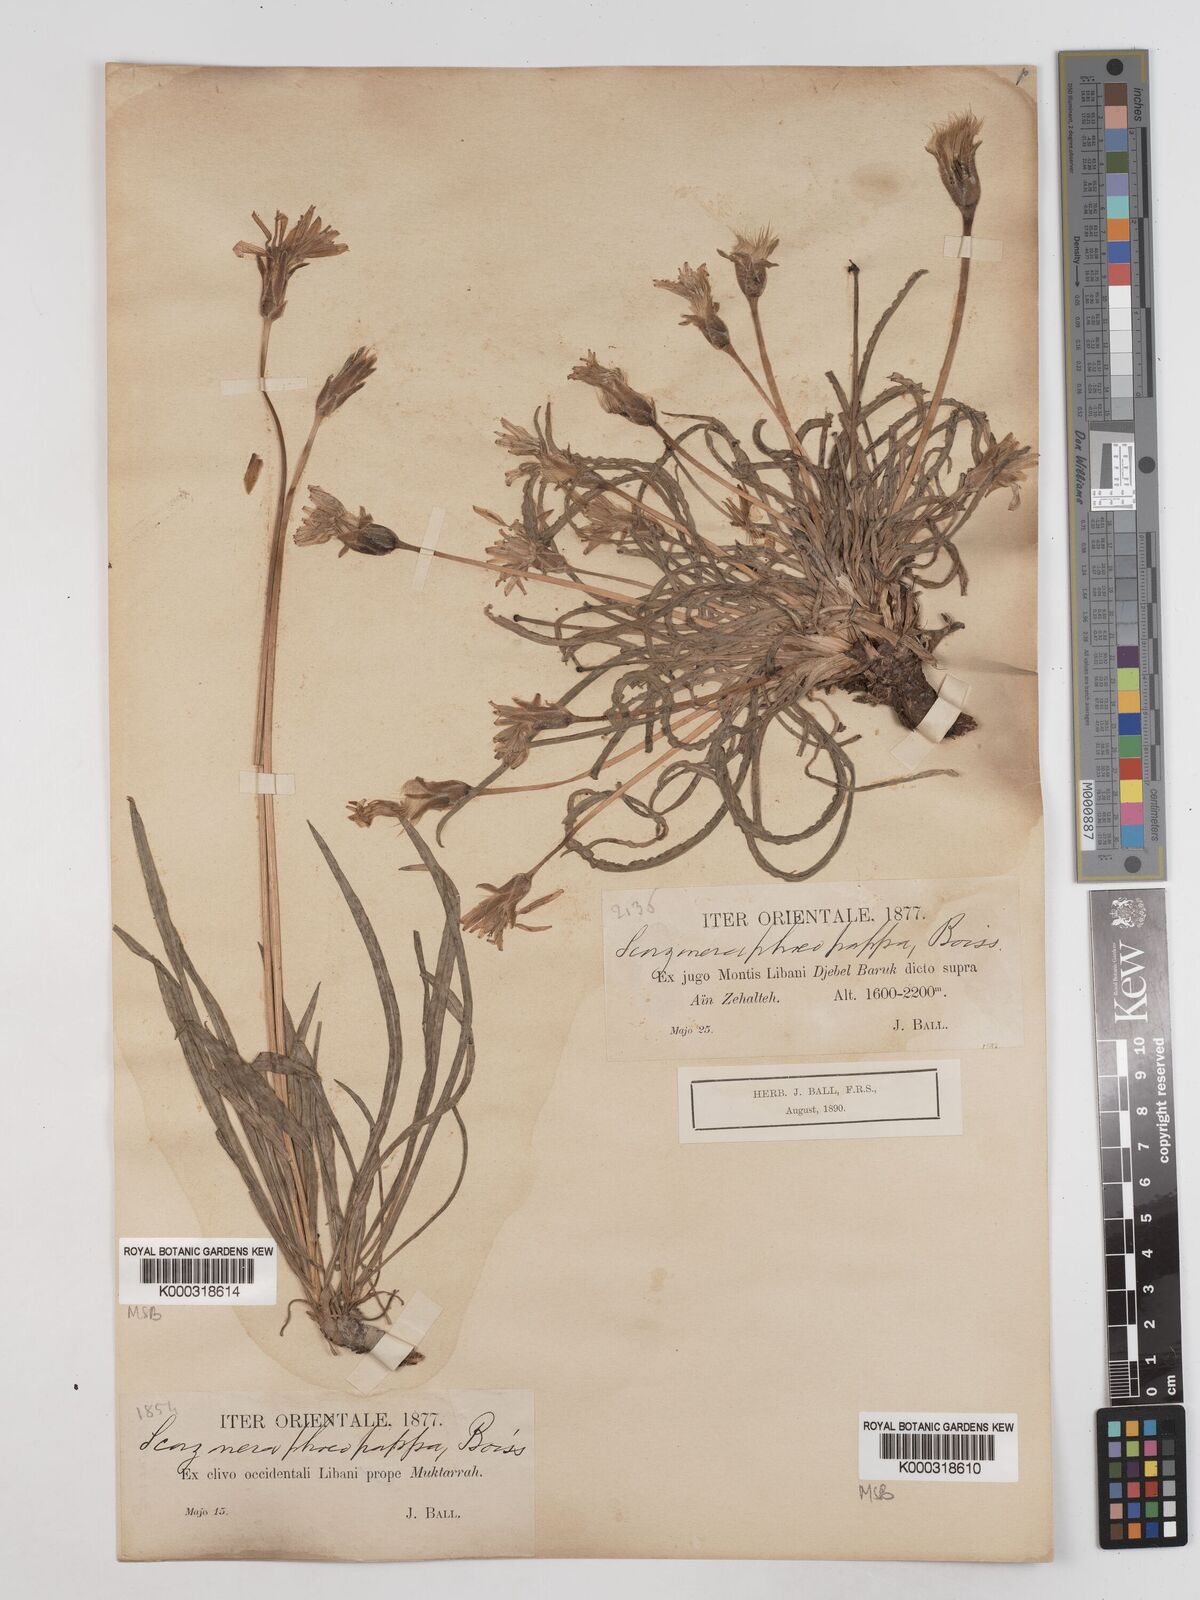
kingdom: Plantae
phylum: Tracheophyta
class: Magnoliopsida
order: Asterales
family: Asteraceae
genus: Pseudopodospermum
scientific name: Pseudopodospermum phaeopappum
